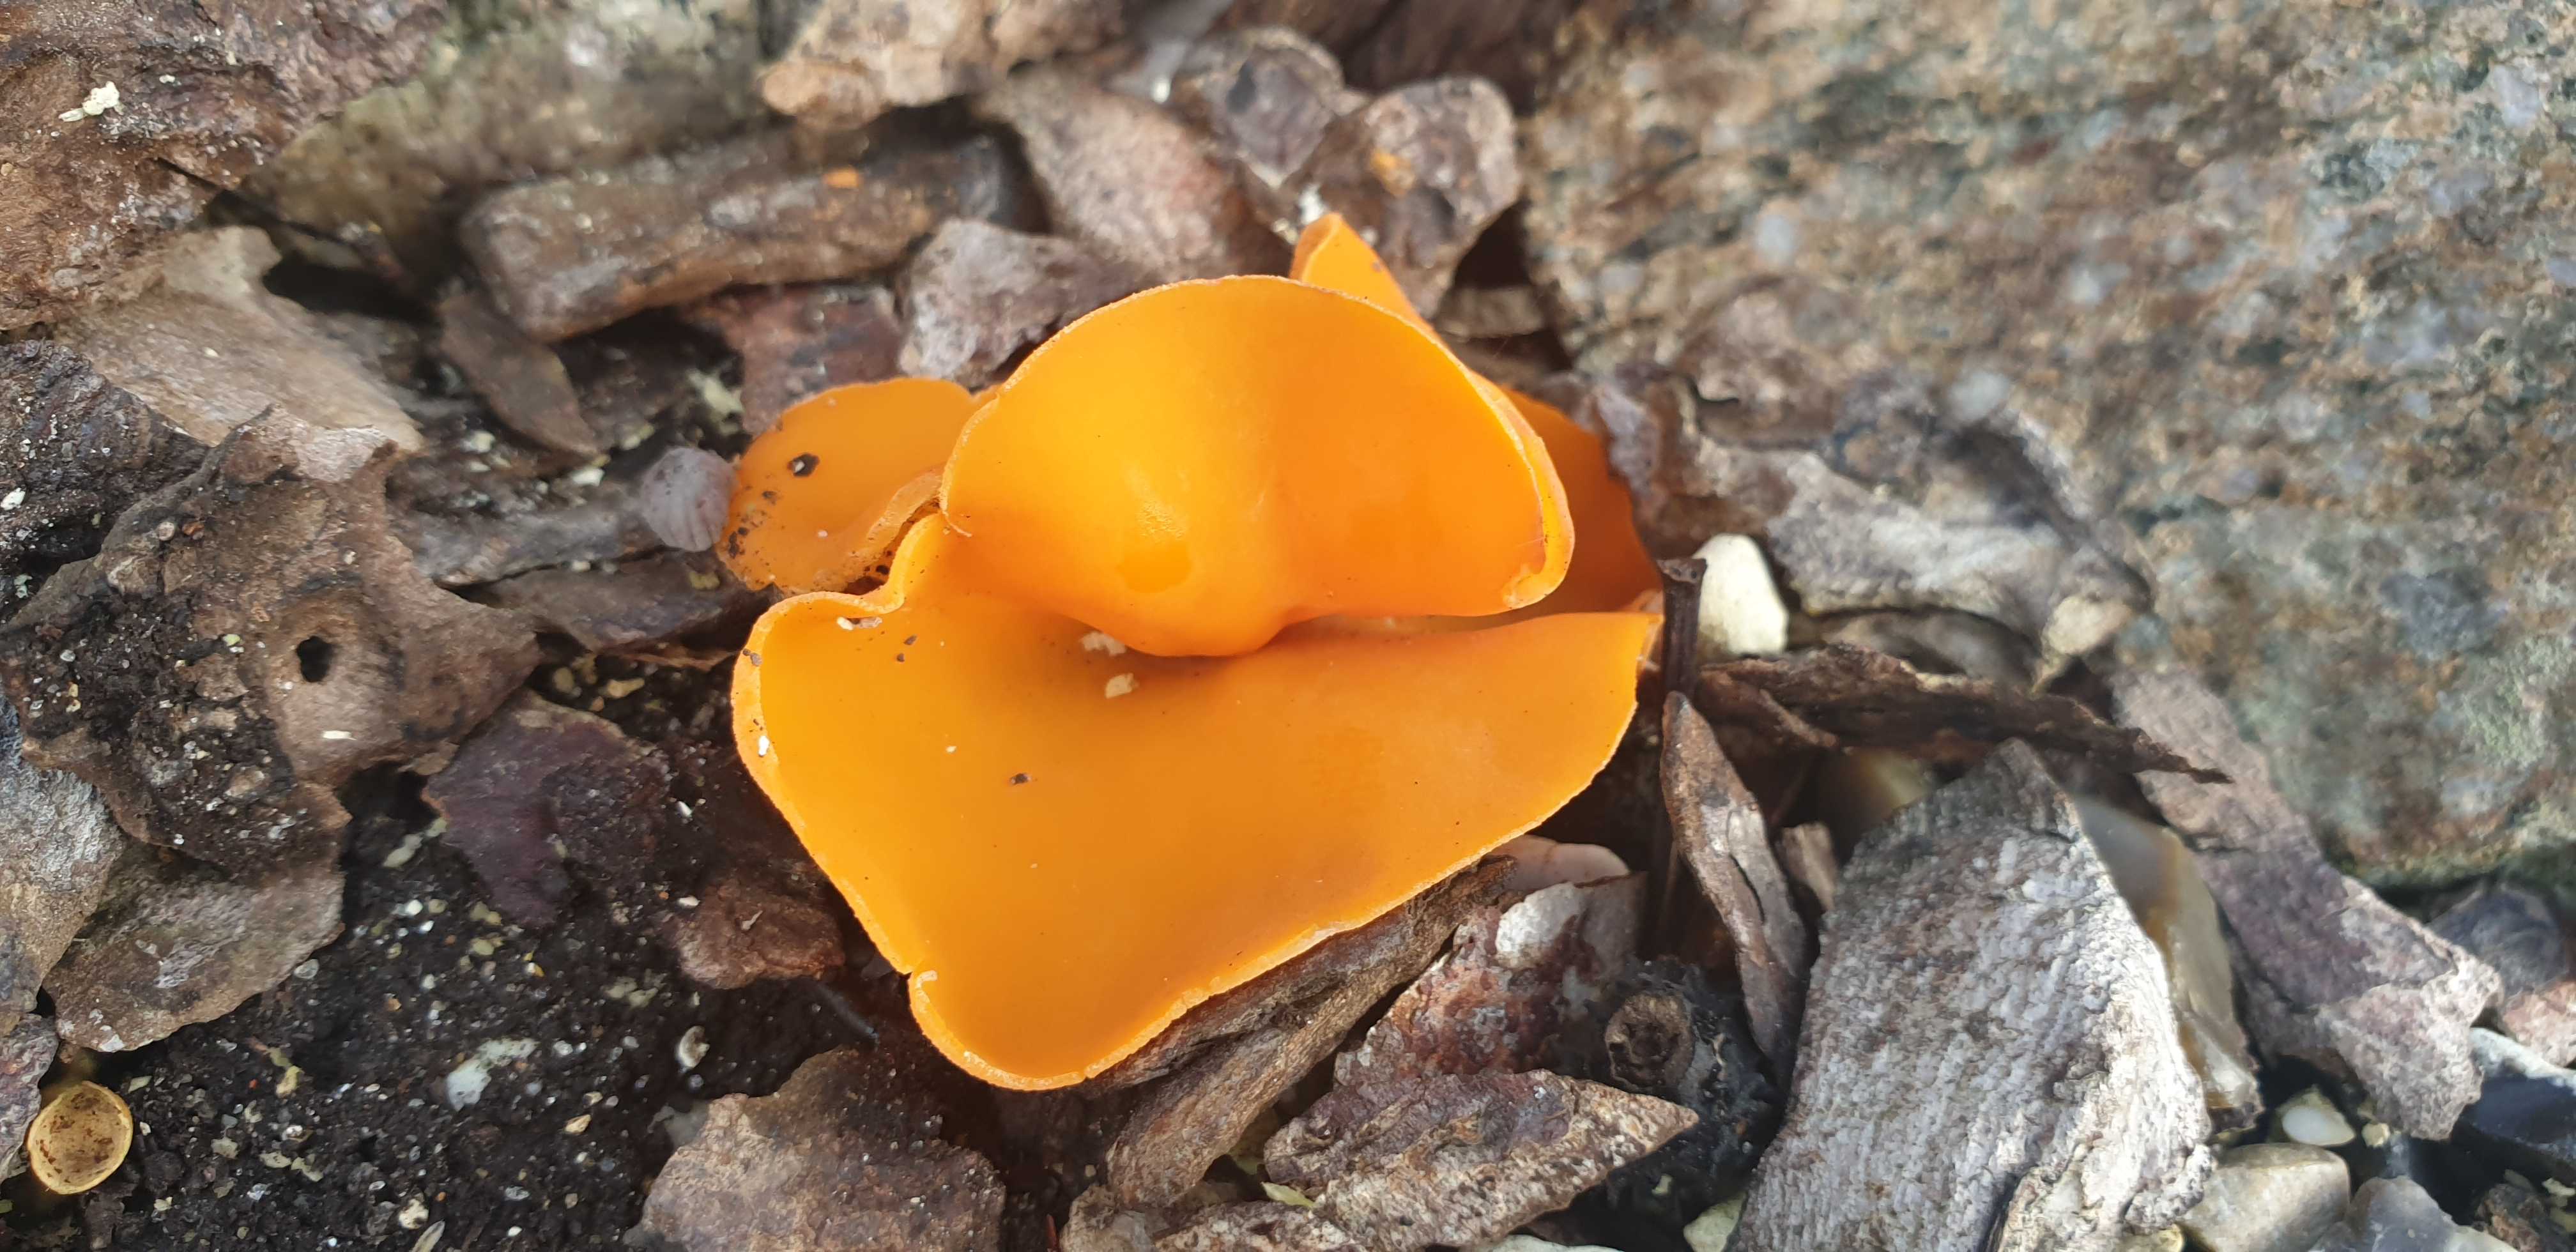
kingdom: Fungi
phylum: Ascomycota
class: Pezizomycetes
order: Pezizales
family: Pyronemataceae
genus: Aleuria
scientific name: Aleuria aurantia
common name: almindelig orangebæger
